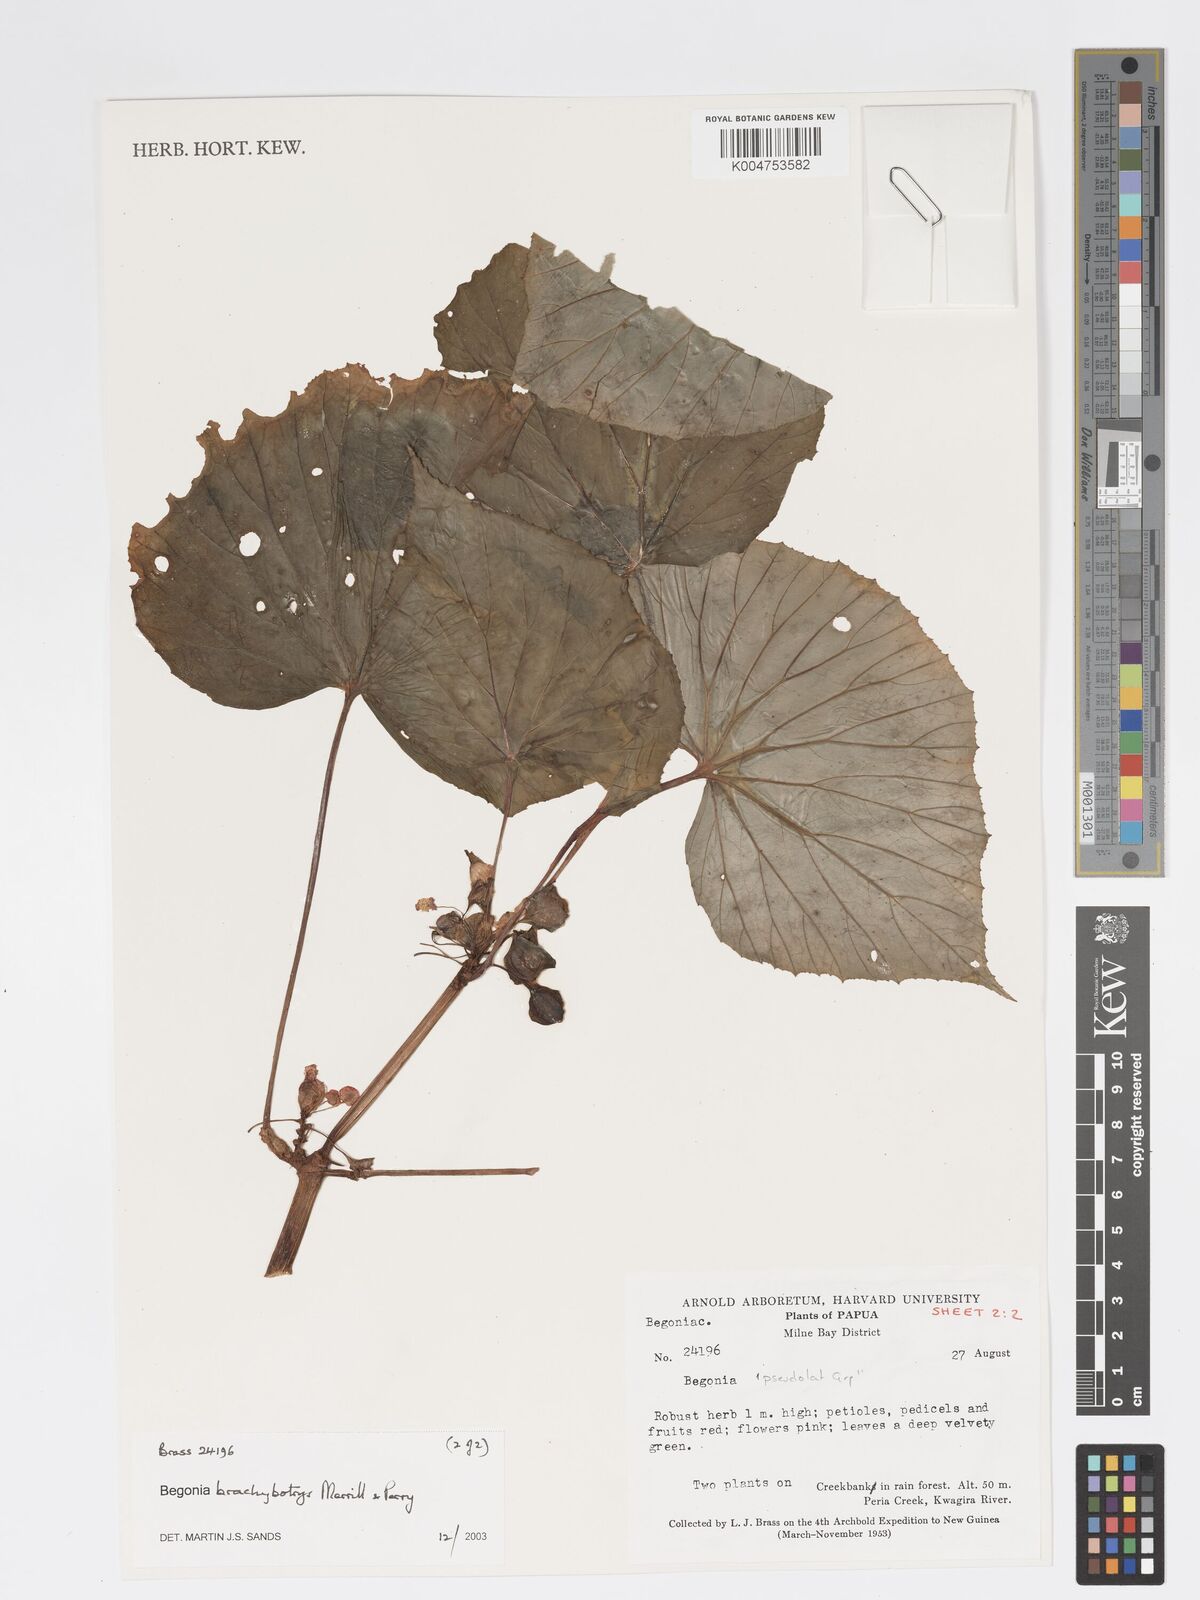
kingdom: Plantae
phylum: Tracheophyta
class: Magnoliopsida
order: Cucurbitales
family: Begoniaceae
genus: Begonia
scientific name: Begonia brachybotrys
